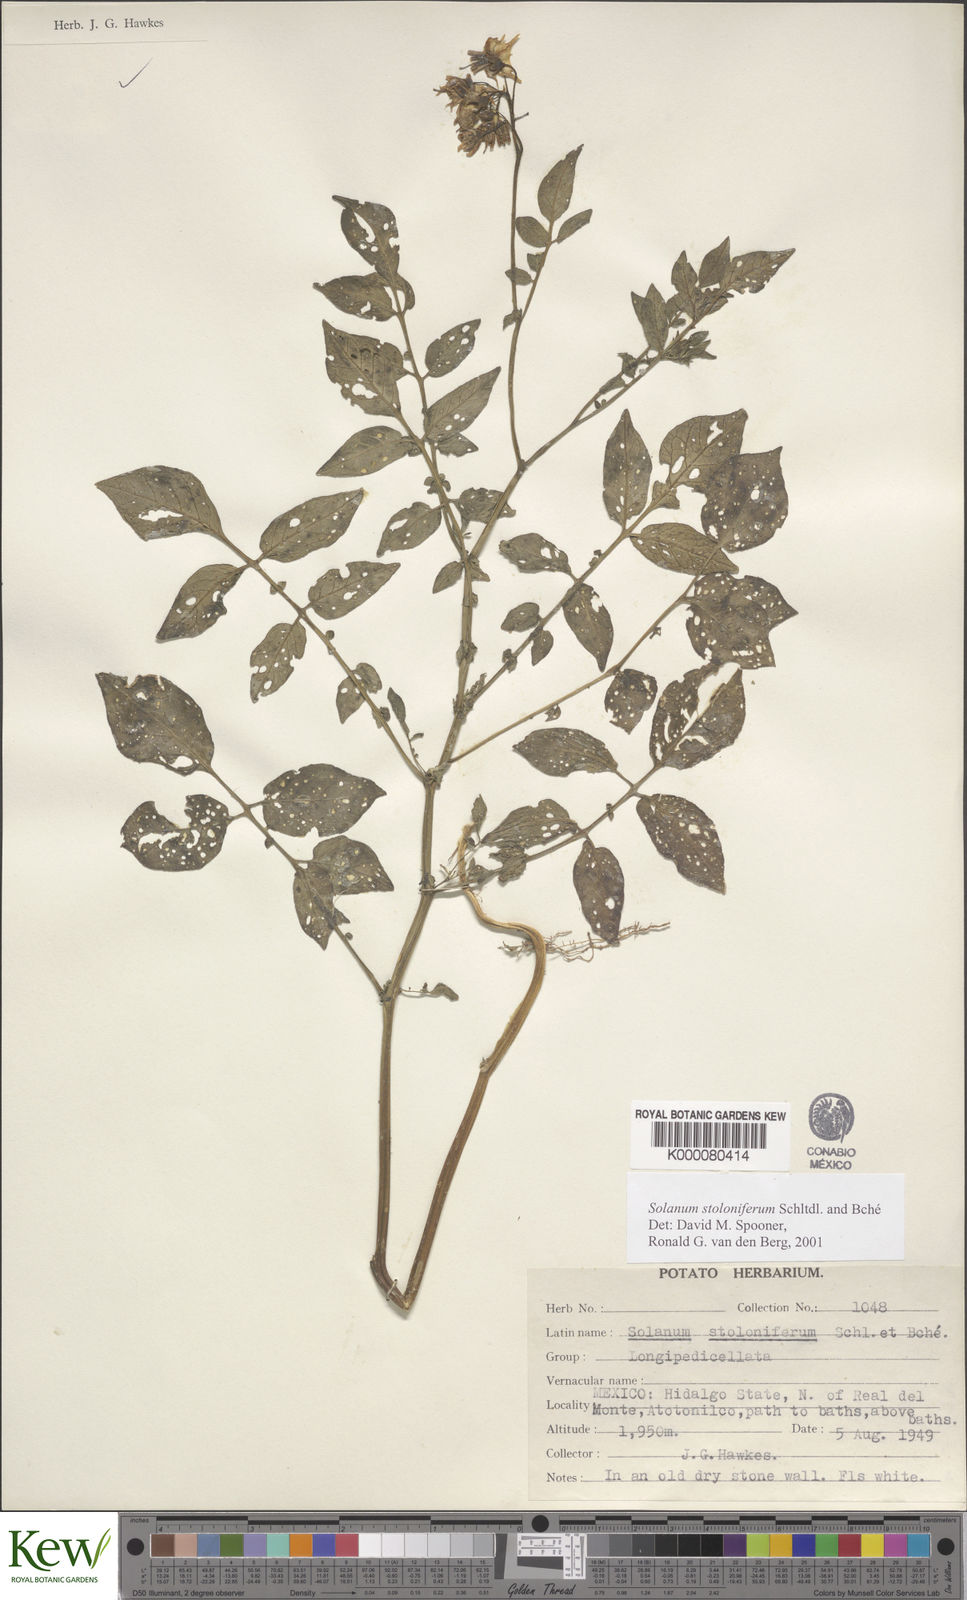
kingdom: Plantae
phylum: Tracheophyta
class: Magnoliopsida
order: Solanales
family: Solanaceae
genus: Solanum
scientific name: Solanum stoloniferum
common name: Fendler's nighshade
